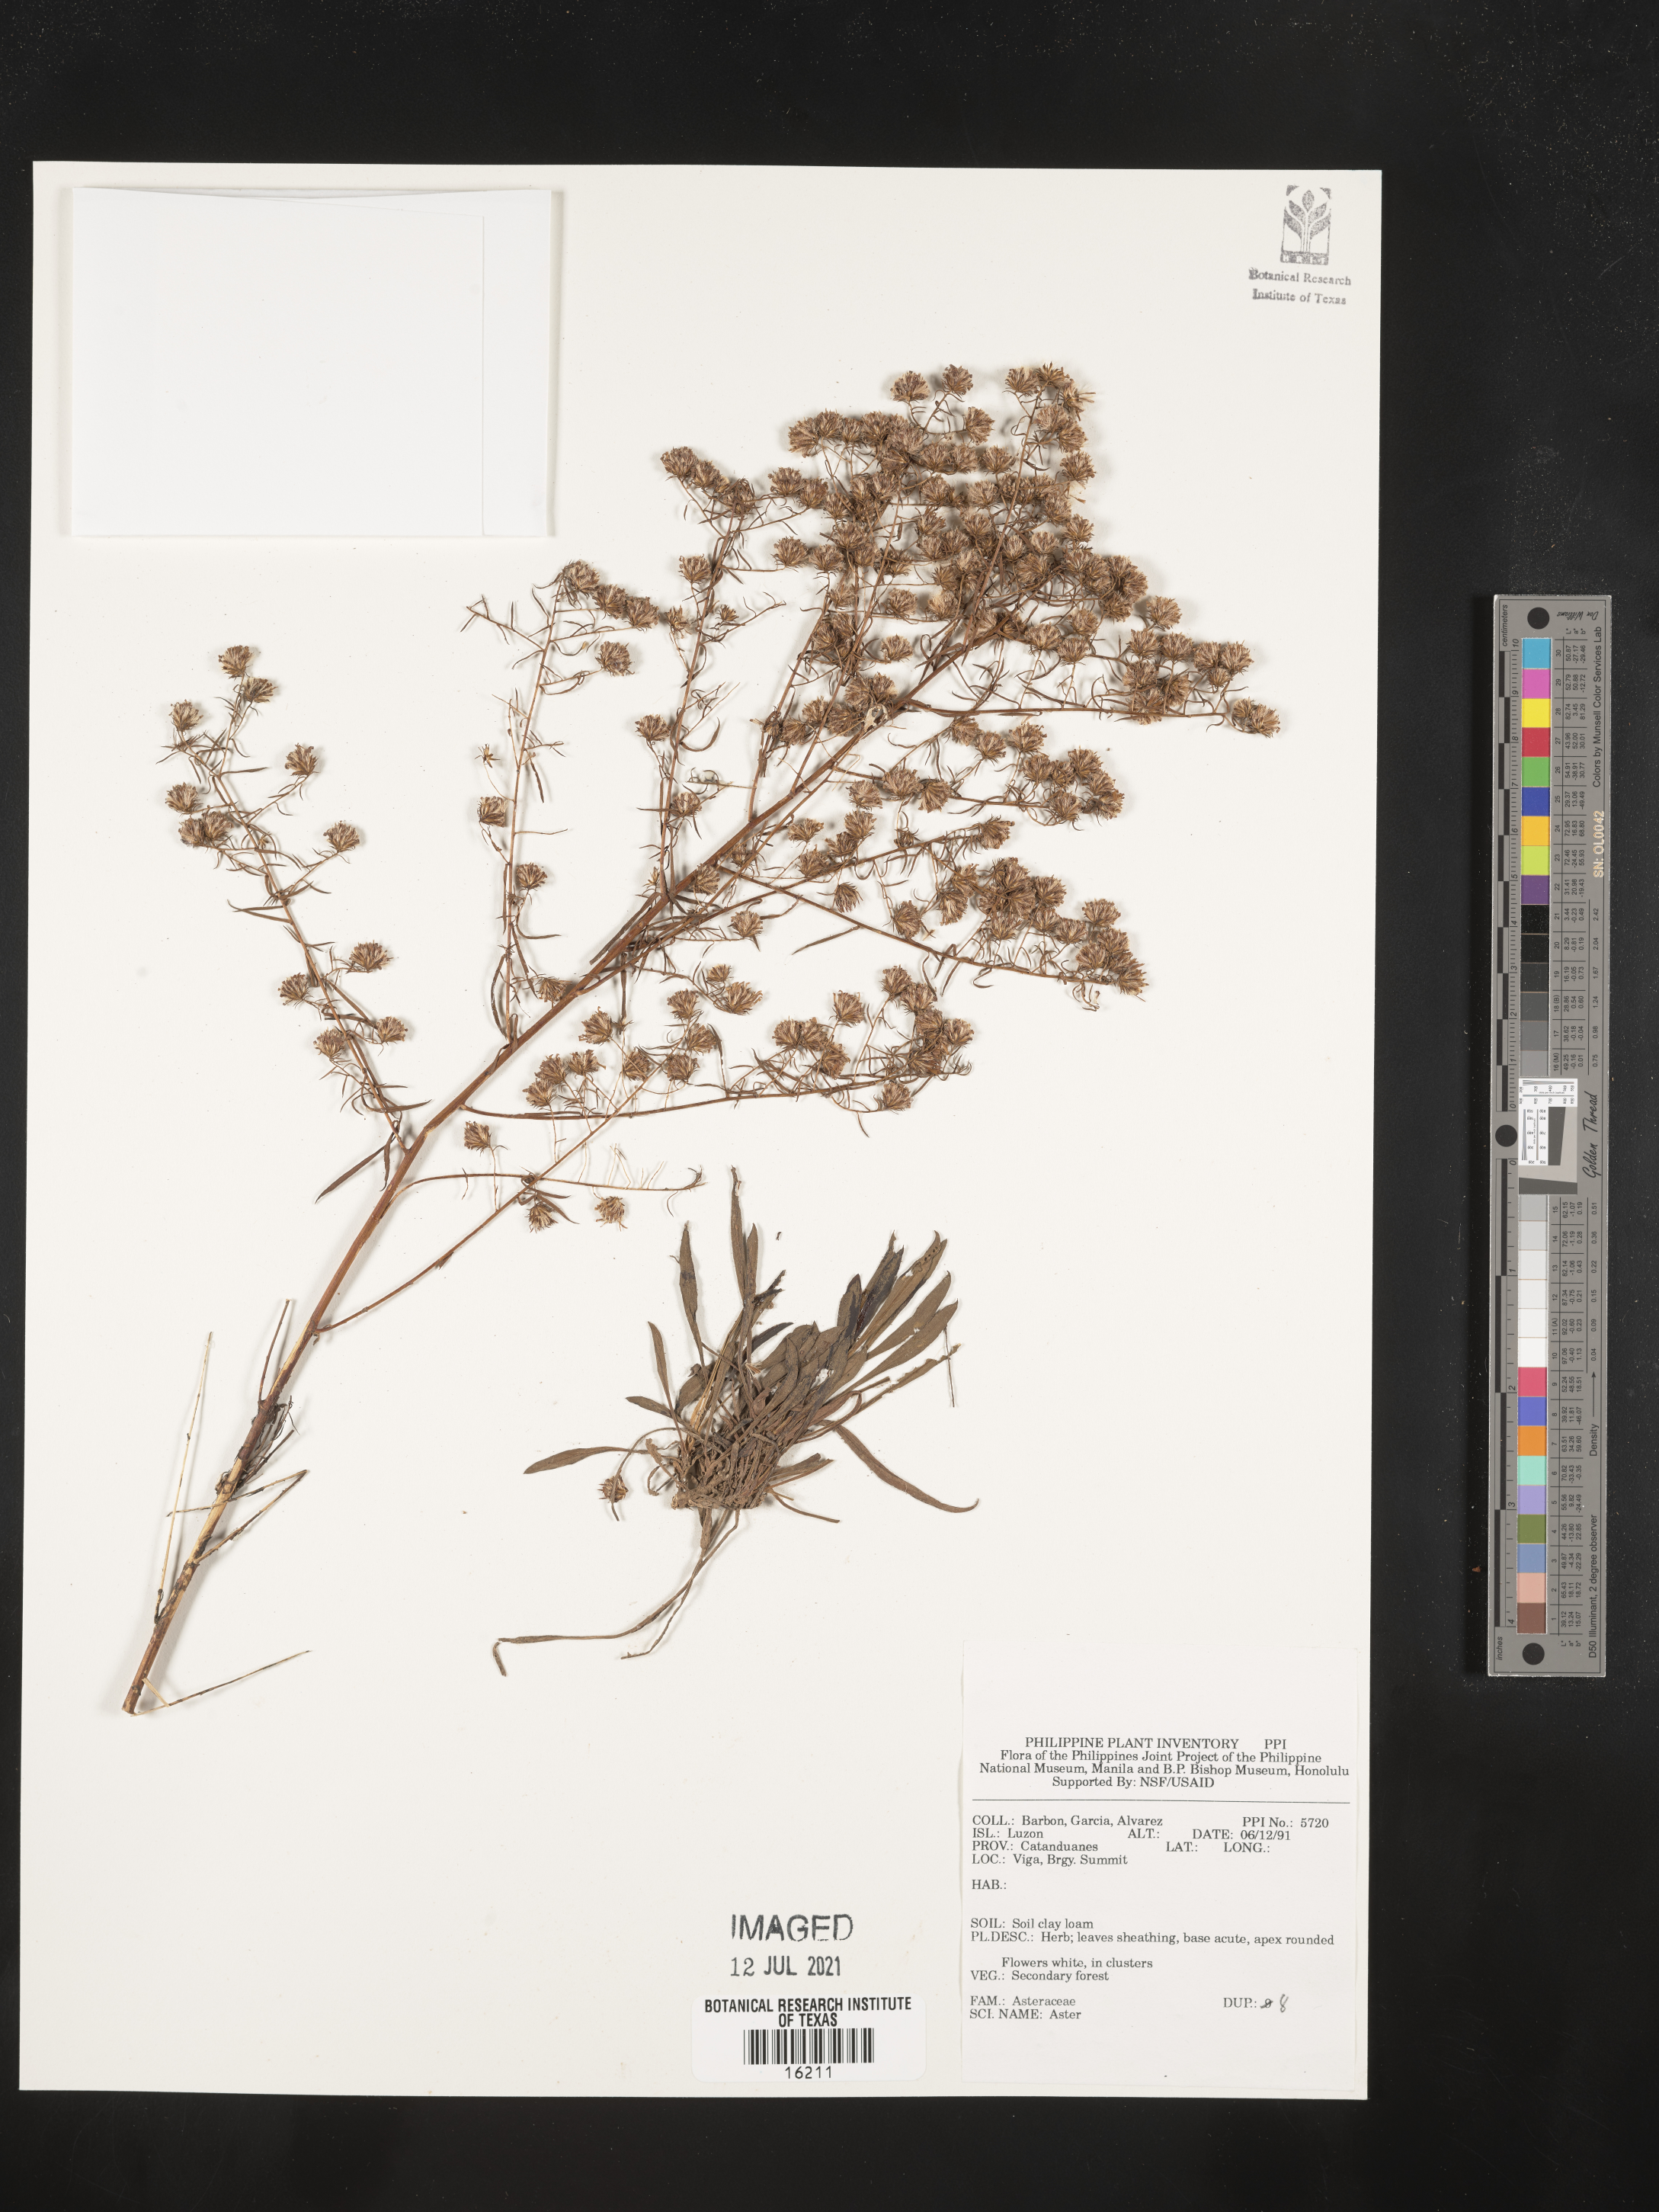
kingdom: Plantae
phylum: Tracheophyta
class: Magnoliopsida
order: Asterales
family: Asteraceae
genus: Aster
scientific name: Aster
